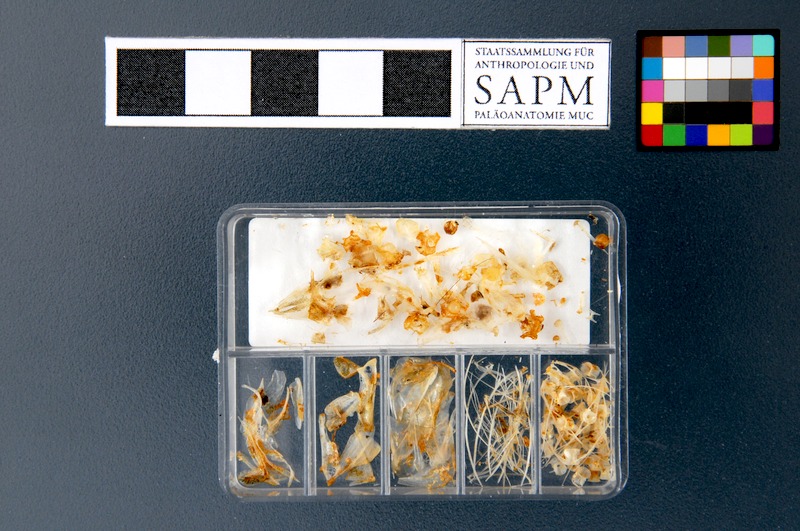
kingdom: Animalia
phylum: Chordata
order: Clupeiformes
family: Clupeidae
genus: Sprattus
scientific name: Sprattus sprattus
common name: Sprat
